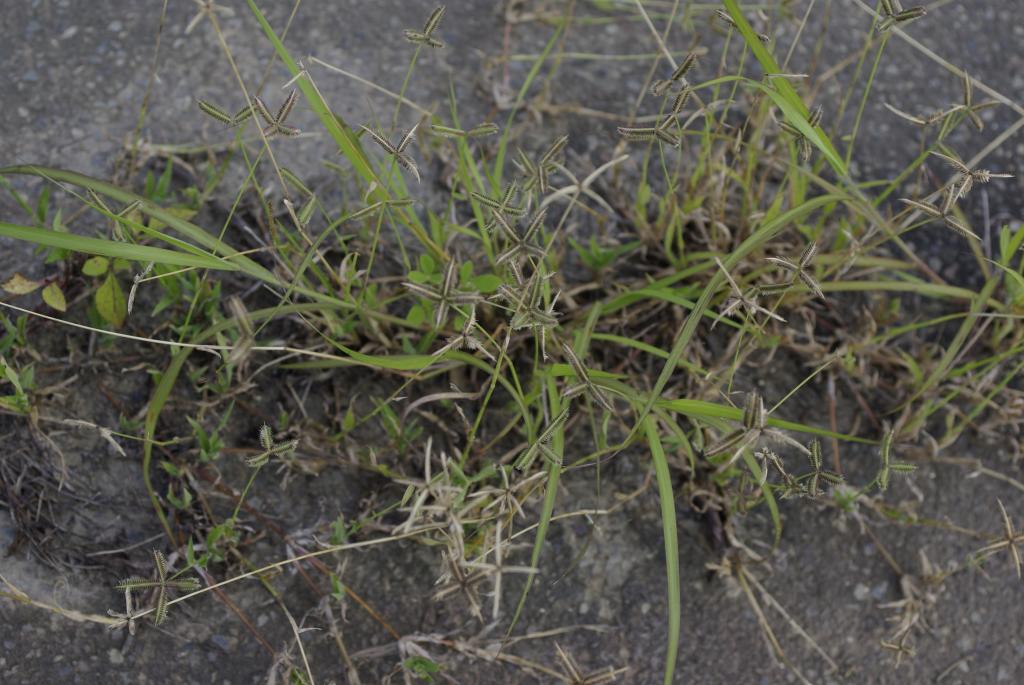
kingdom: Plantae
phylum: Tracheophyta
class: Liliopsida
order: Poales
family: Poaceae
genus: Dactyloctenium
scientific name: Dactyloctenium aegyptium
